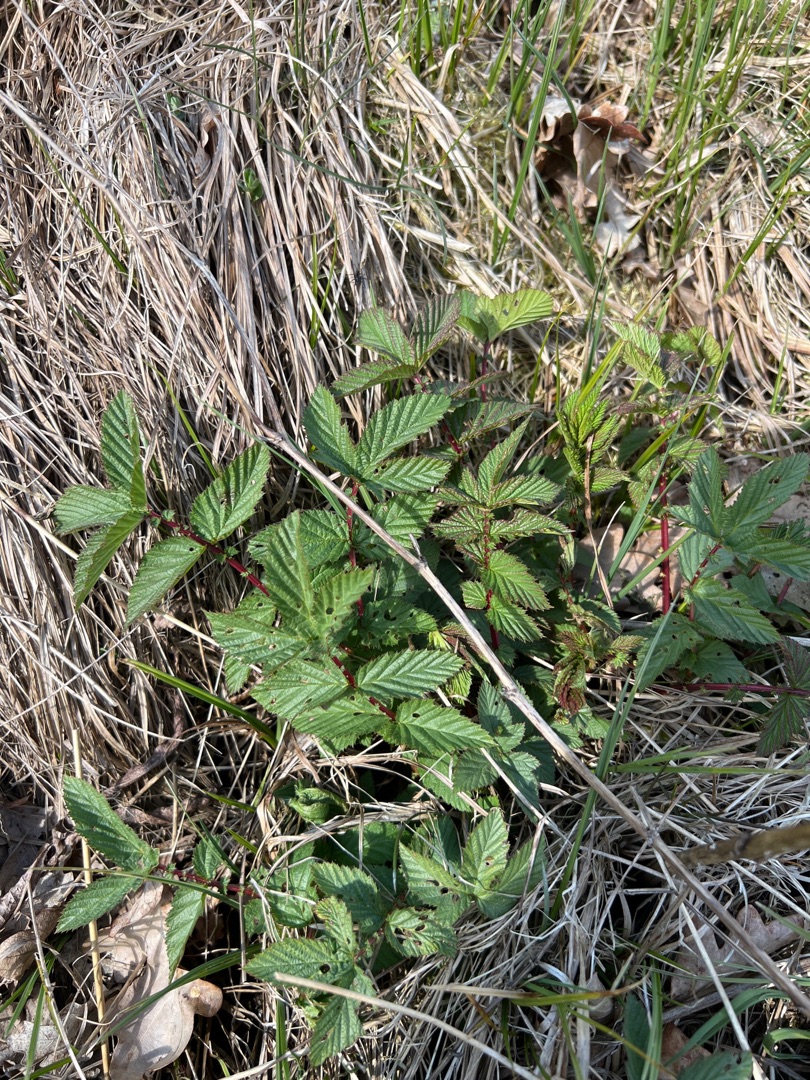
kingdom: Plantae
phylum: Tracheophyta
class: Magnoliopsida
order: Rosales
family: Rosaceae
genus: Filipendula
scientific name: Filipendula ulmaria
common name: Almindelig mjødurt
